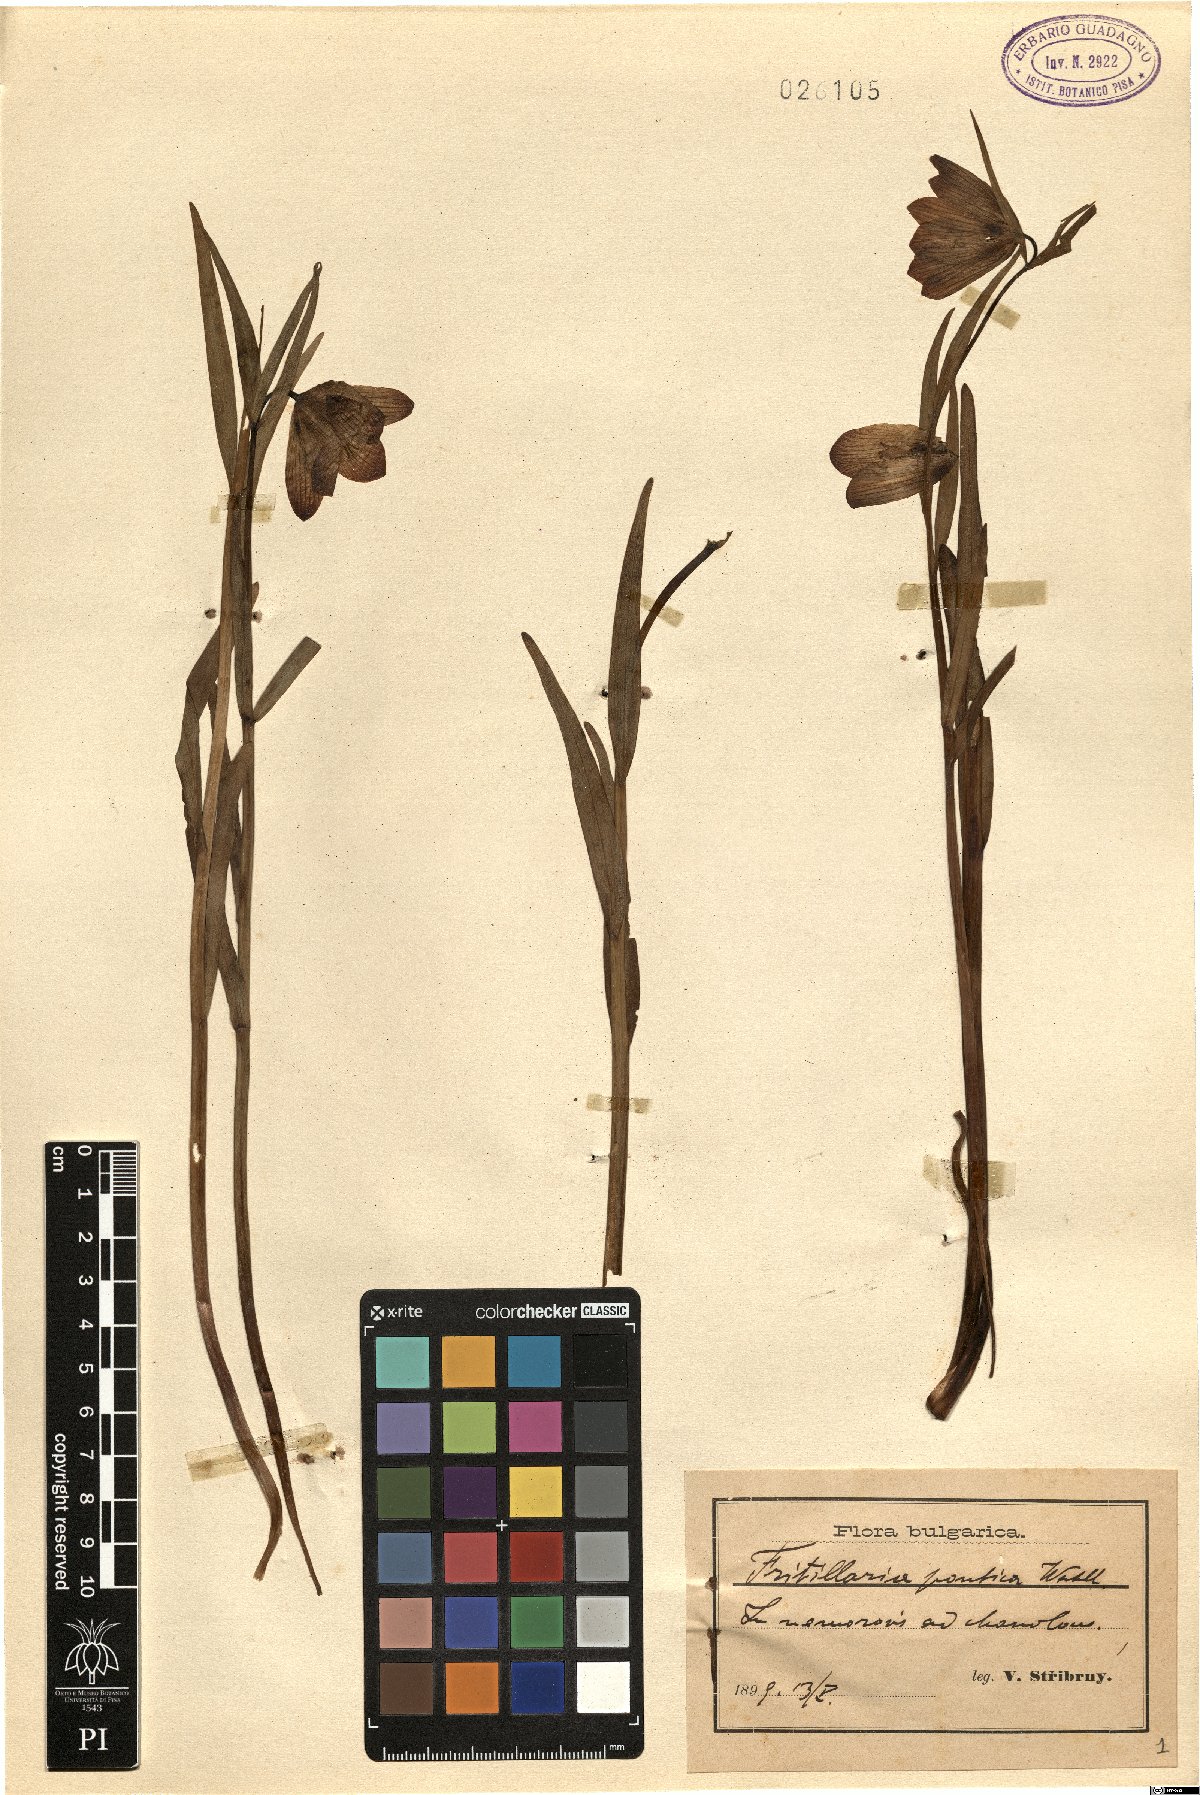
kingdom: Plantae
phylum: Tracheophyta
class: Liliopsida
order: Liliales
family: Liliaceae
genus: Fritillaria
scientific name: Fritillaria pontica
